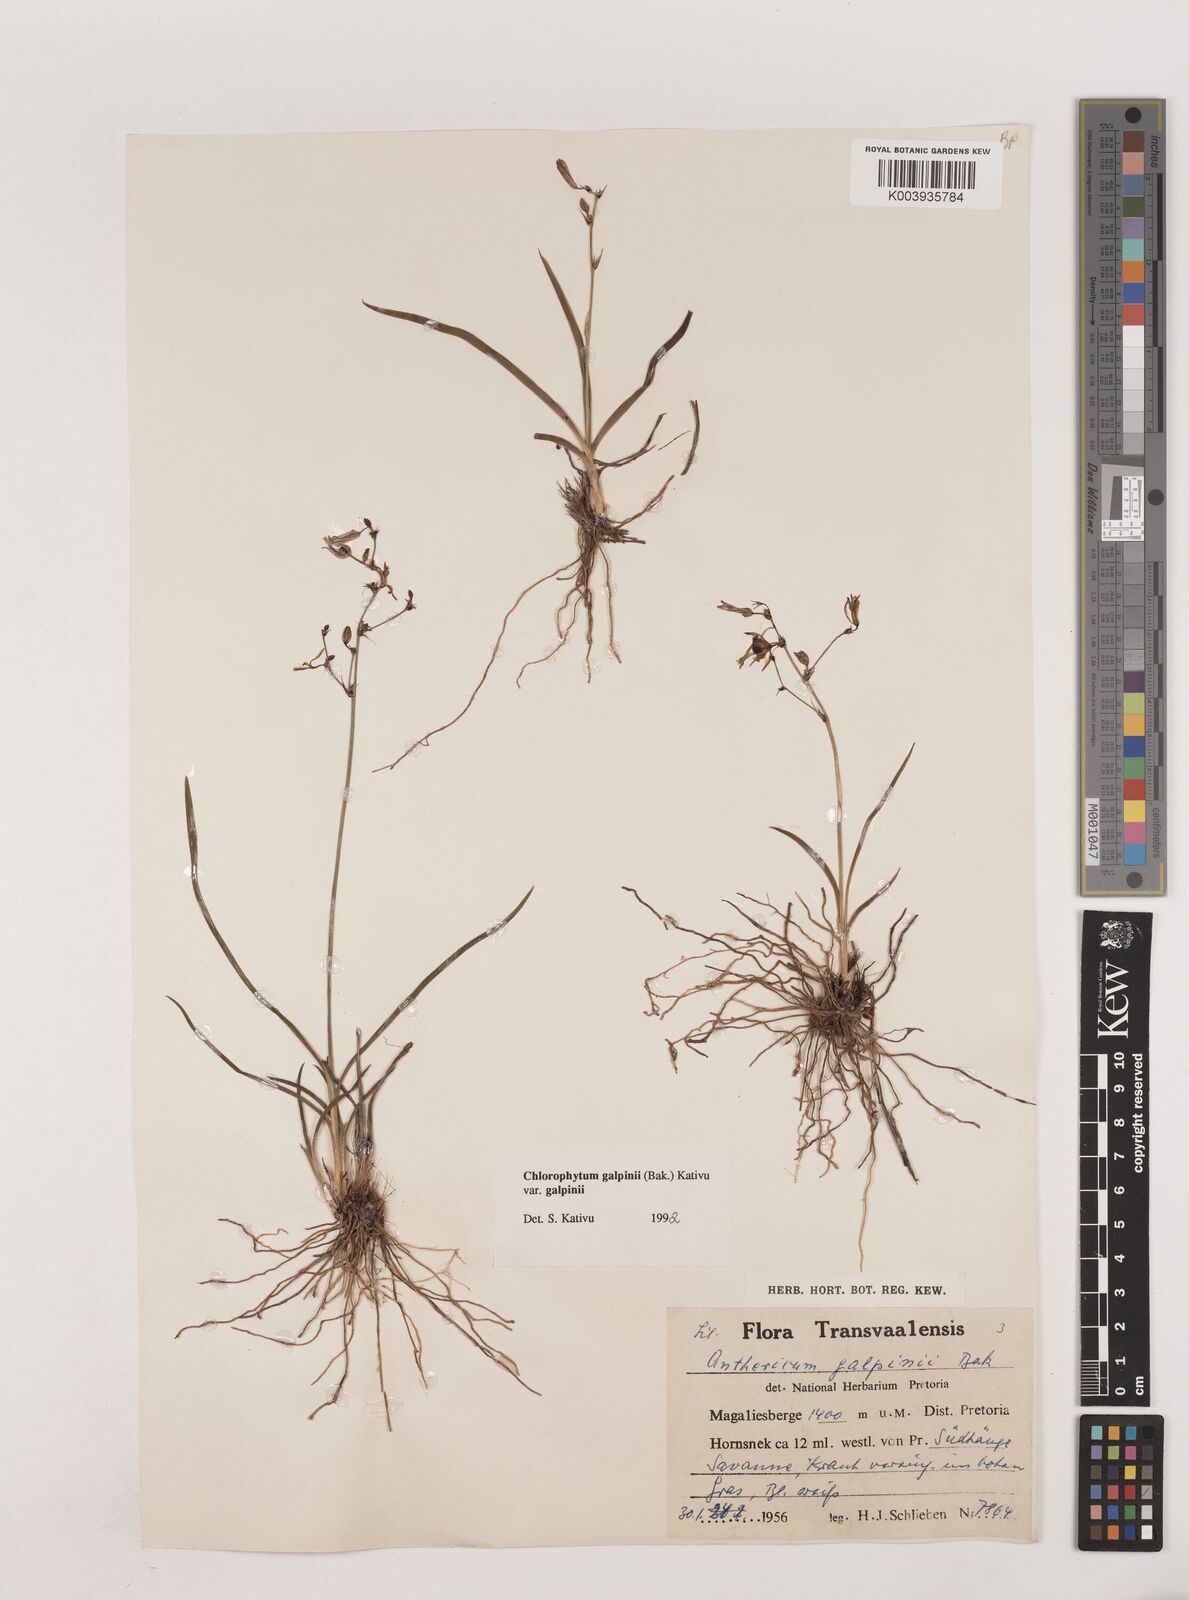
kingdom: Plantae
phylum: Tracheophyta
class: Liliopsida
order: Asparagales
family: Asparagaceae
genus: Chlorophytum
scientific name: Chlorophytum galpinii
